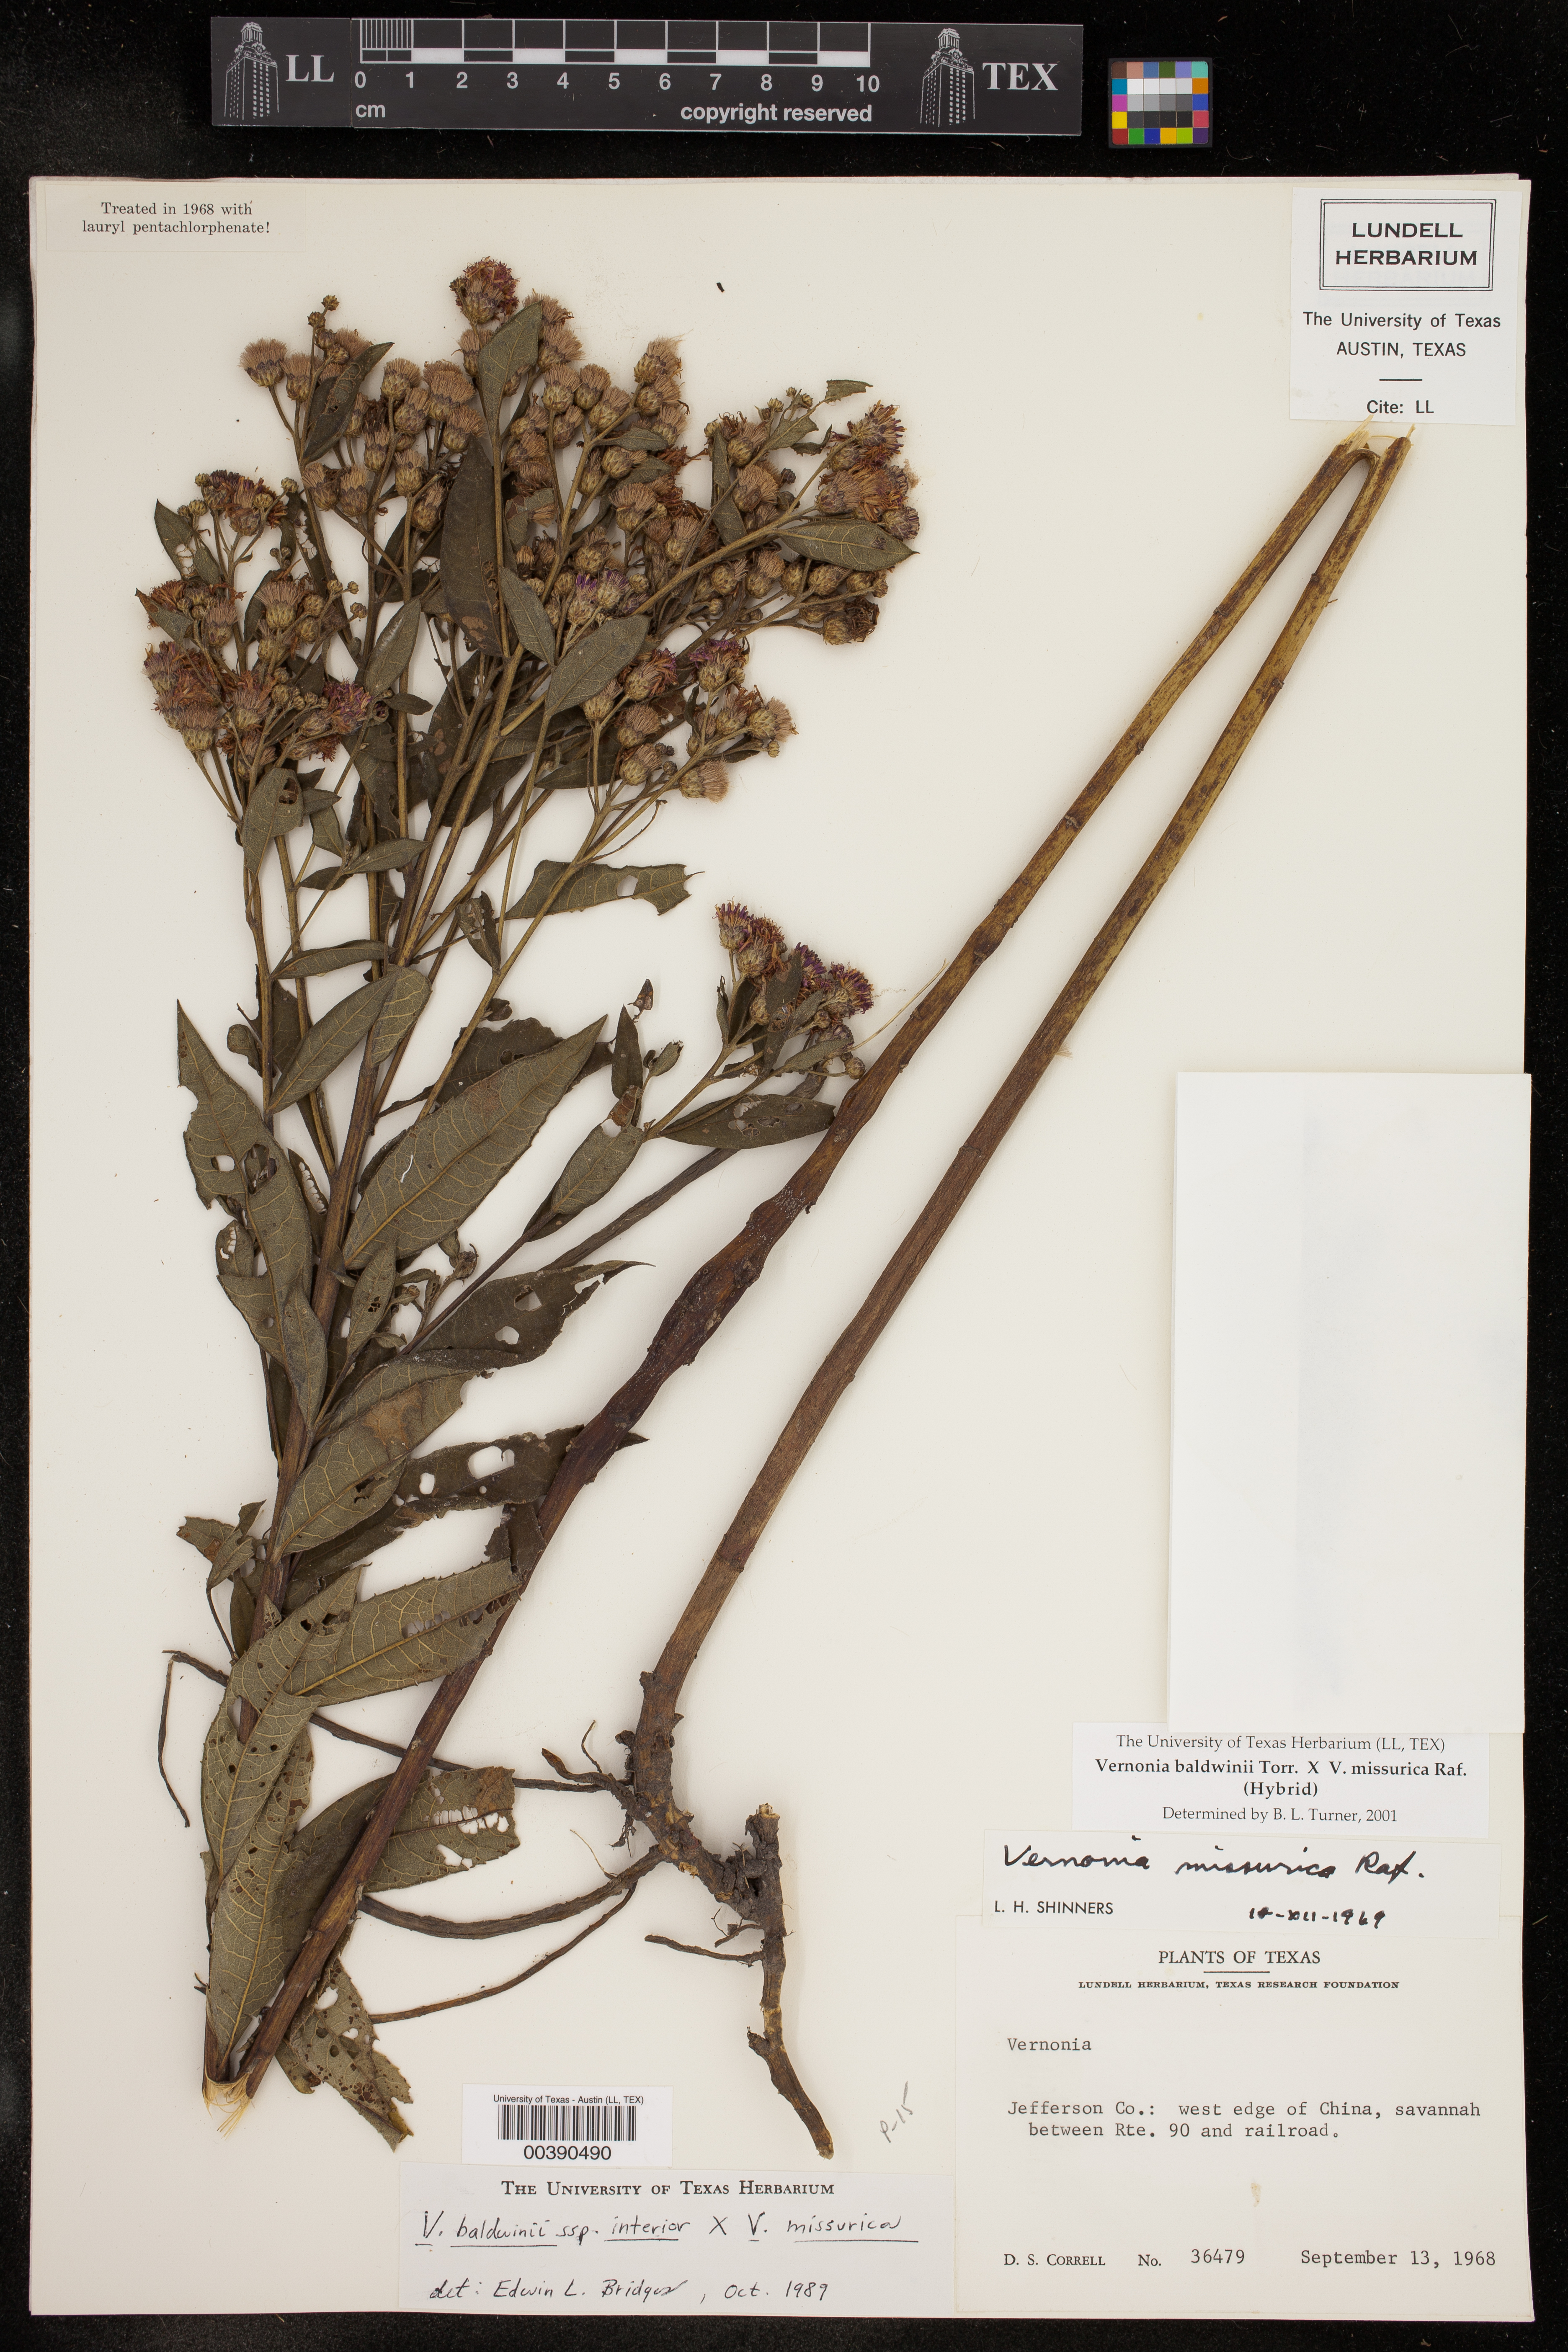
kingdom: Plantae
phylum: Tracheophyta
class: Magnoliopsida
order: Asterales
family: Asteraceae
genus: Vernonia
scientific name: Vernonia
